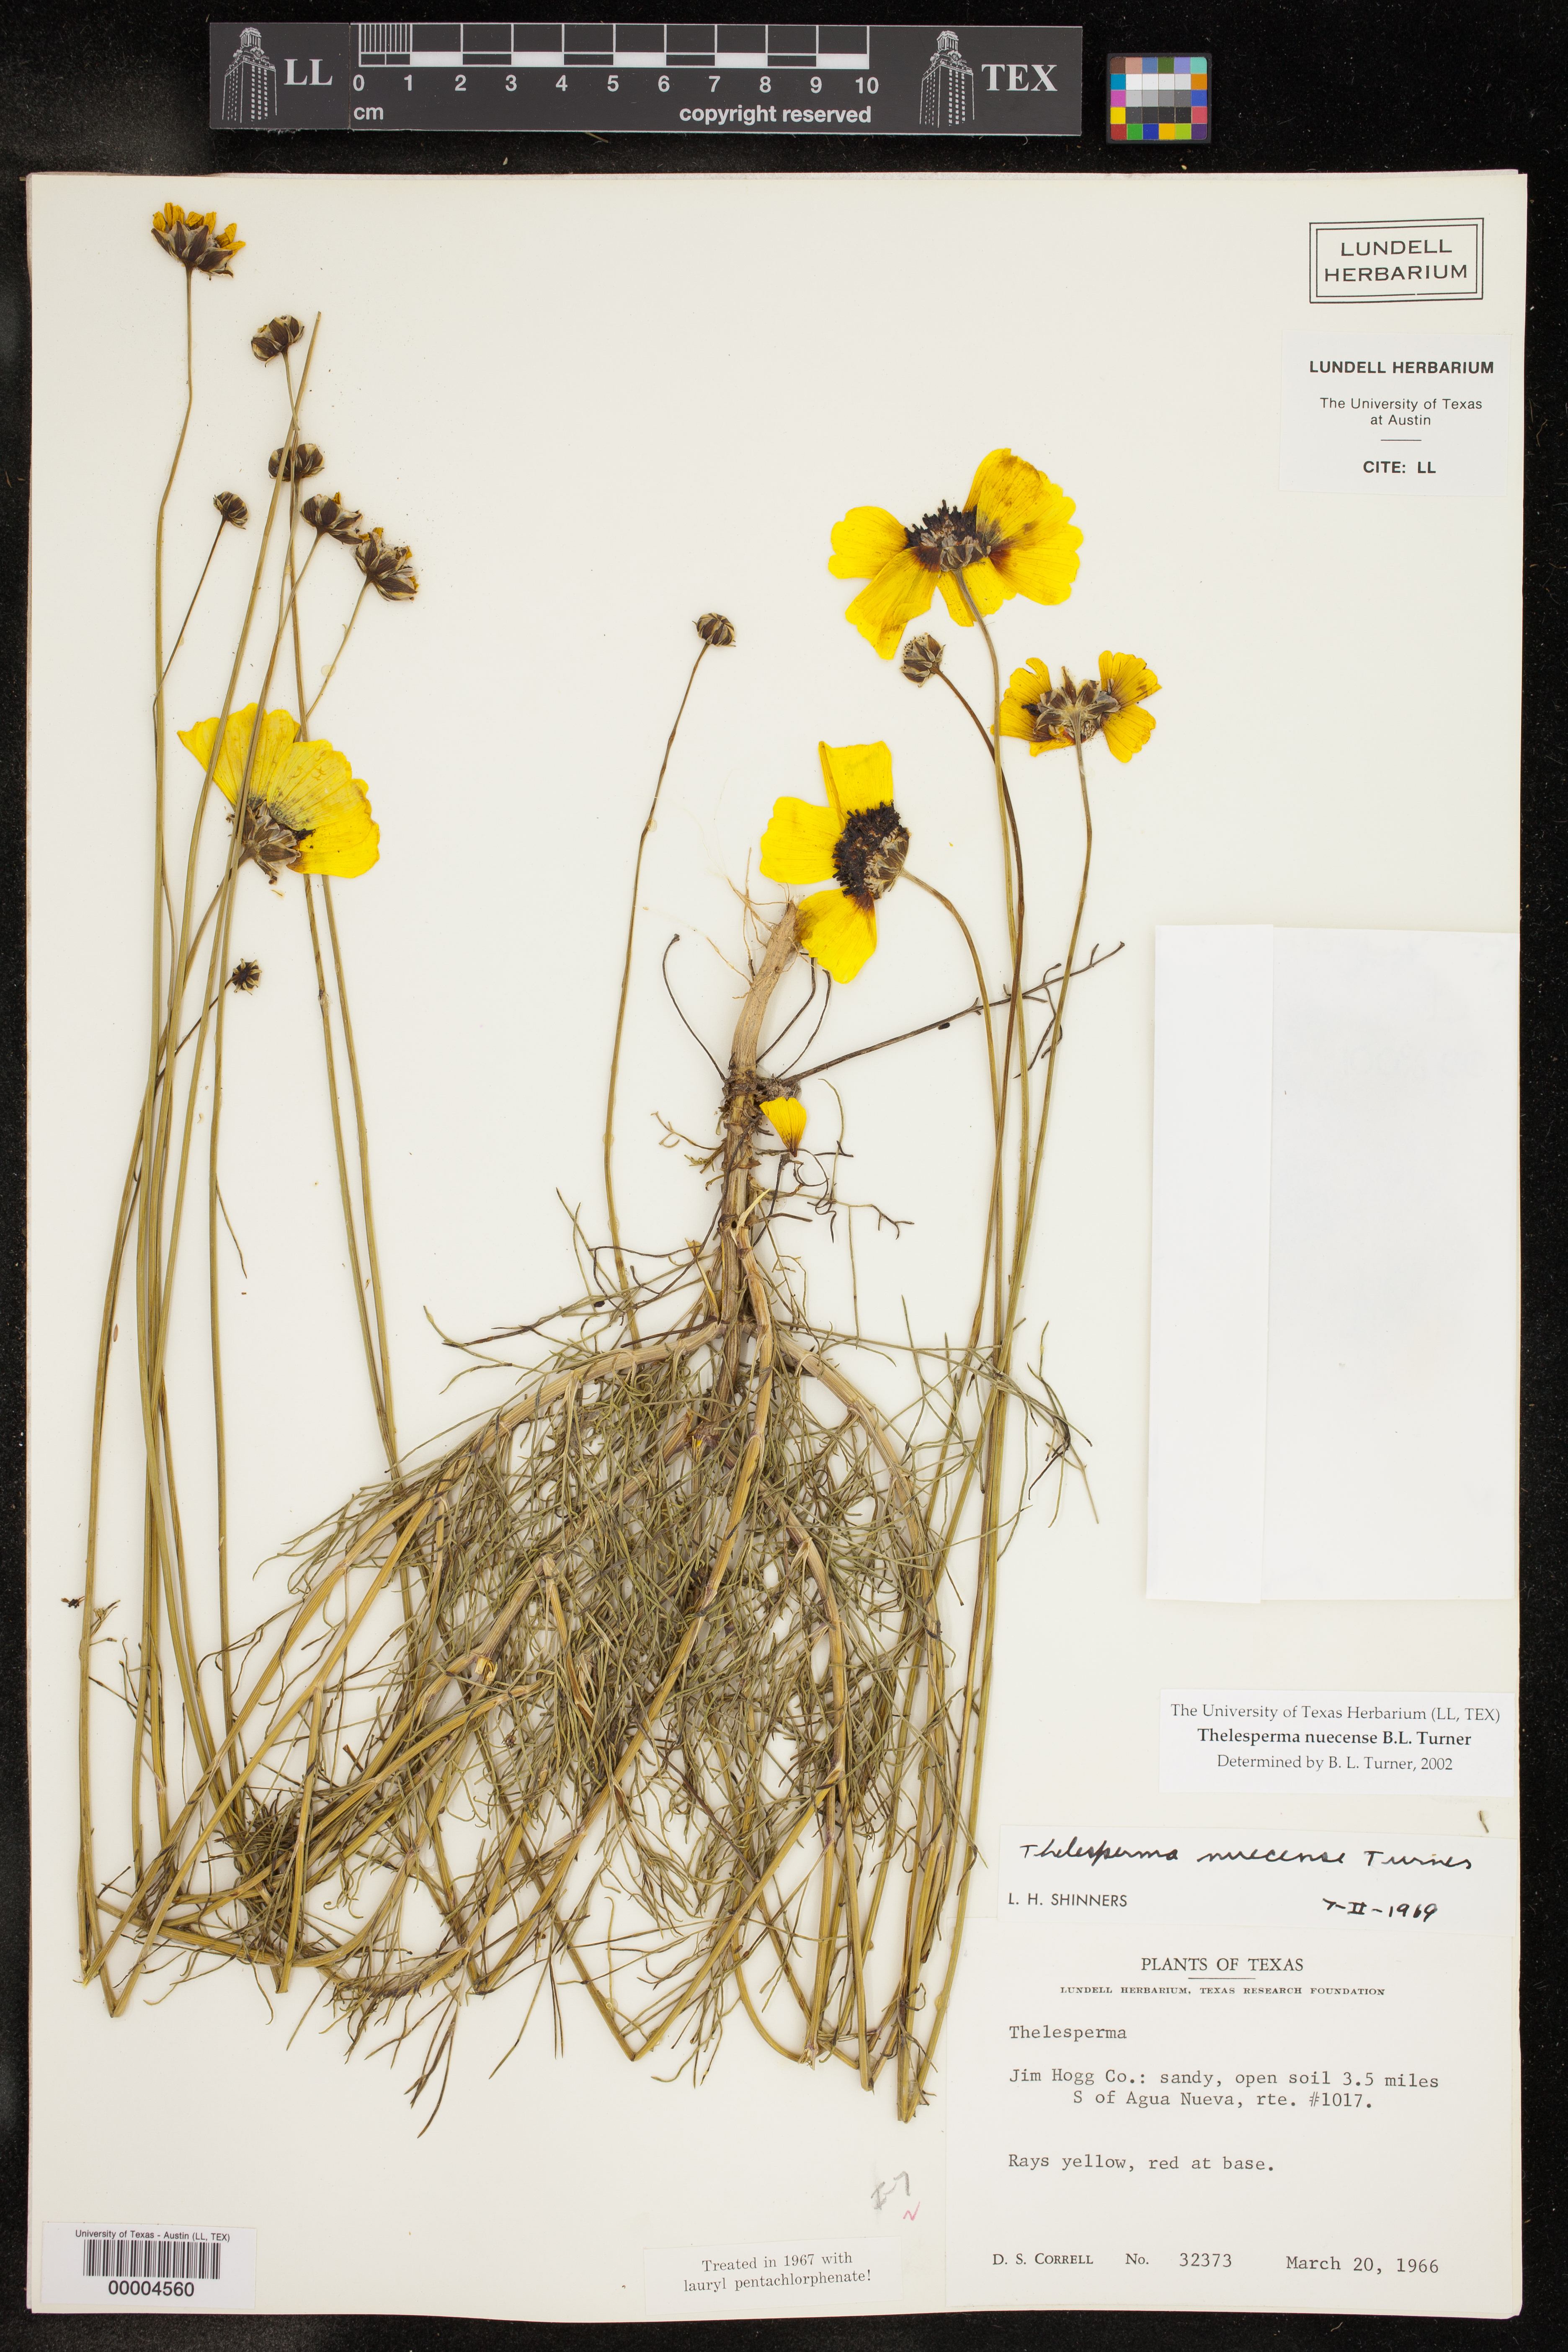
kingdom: Plantae
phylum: Tracheophyta
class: Magnoliopsida
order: Asterales
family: Asteraceae
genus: Thelesperma
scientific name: Thelesperma nuecense
